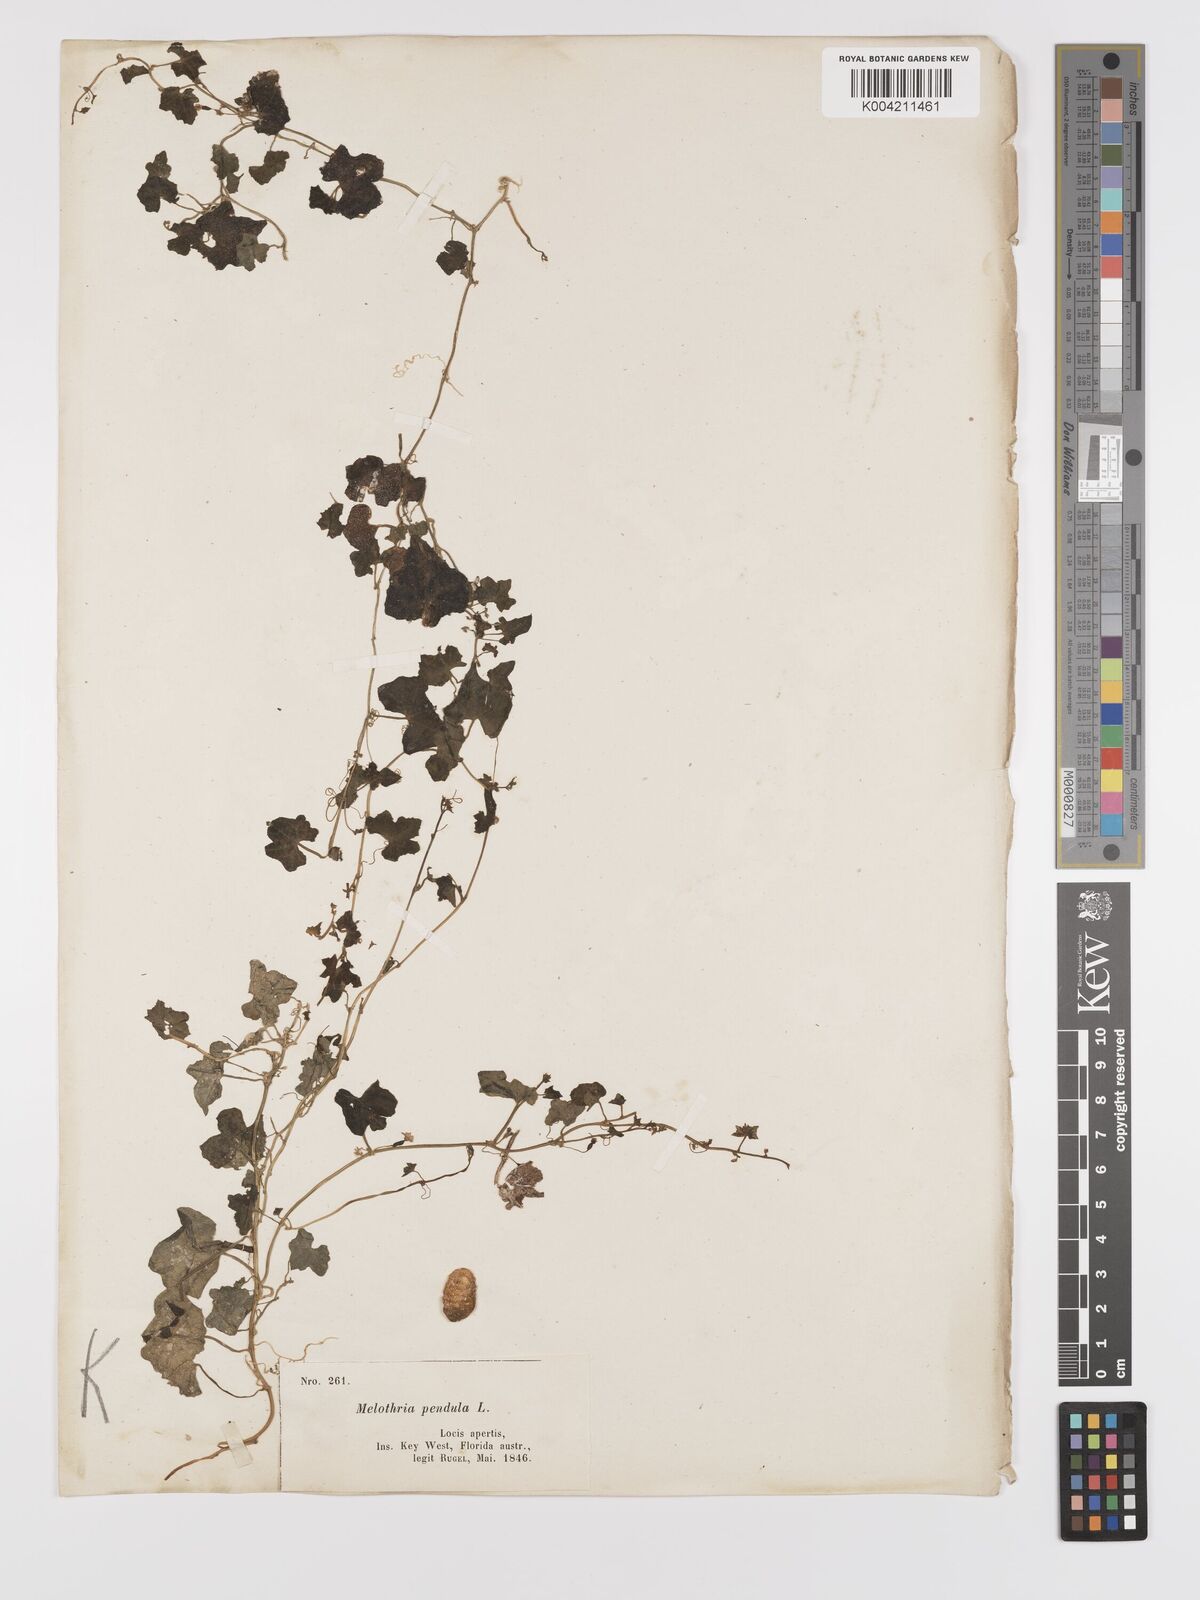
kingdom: Plantae
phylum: Tracheophyta
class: Magnoliopsida
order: Cucurbitales
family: Cucurbitaceae
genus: Melothria
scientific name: Melothria pendula
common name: Creeping-cucumber
